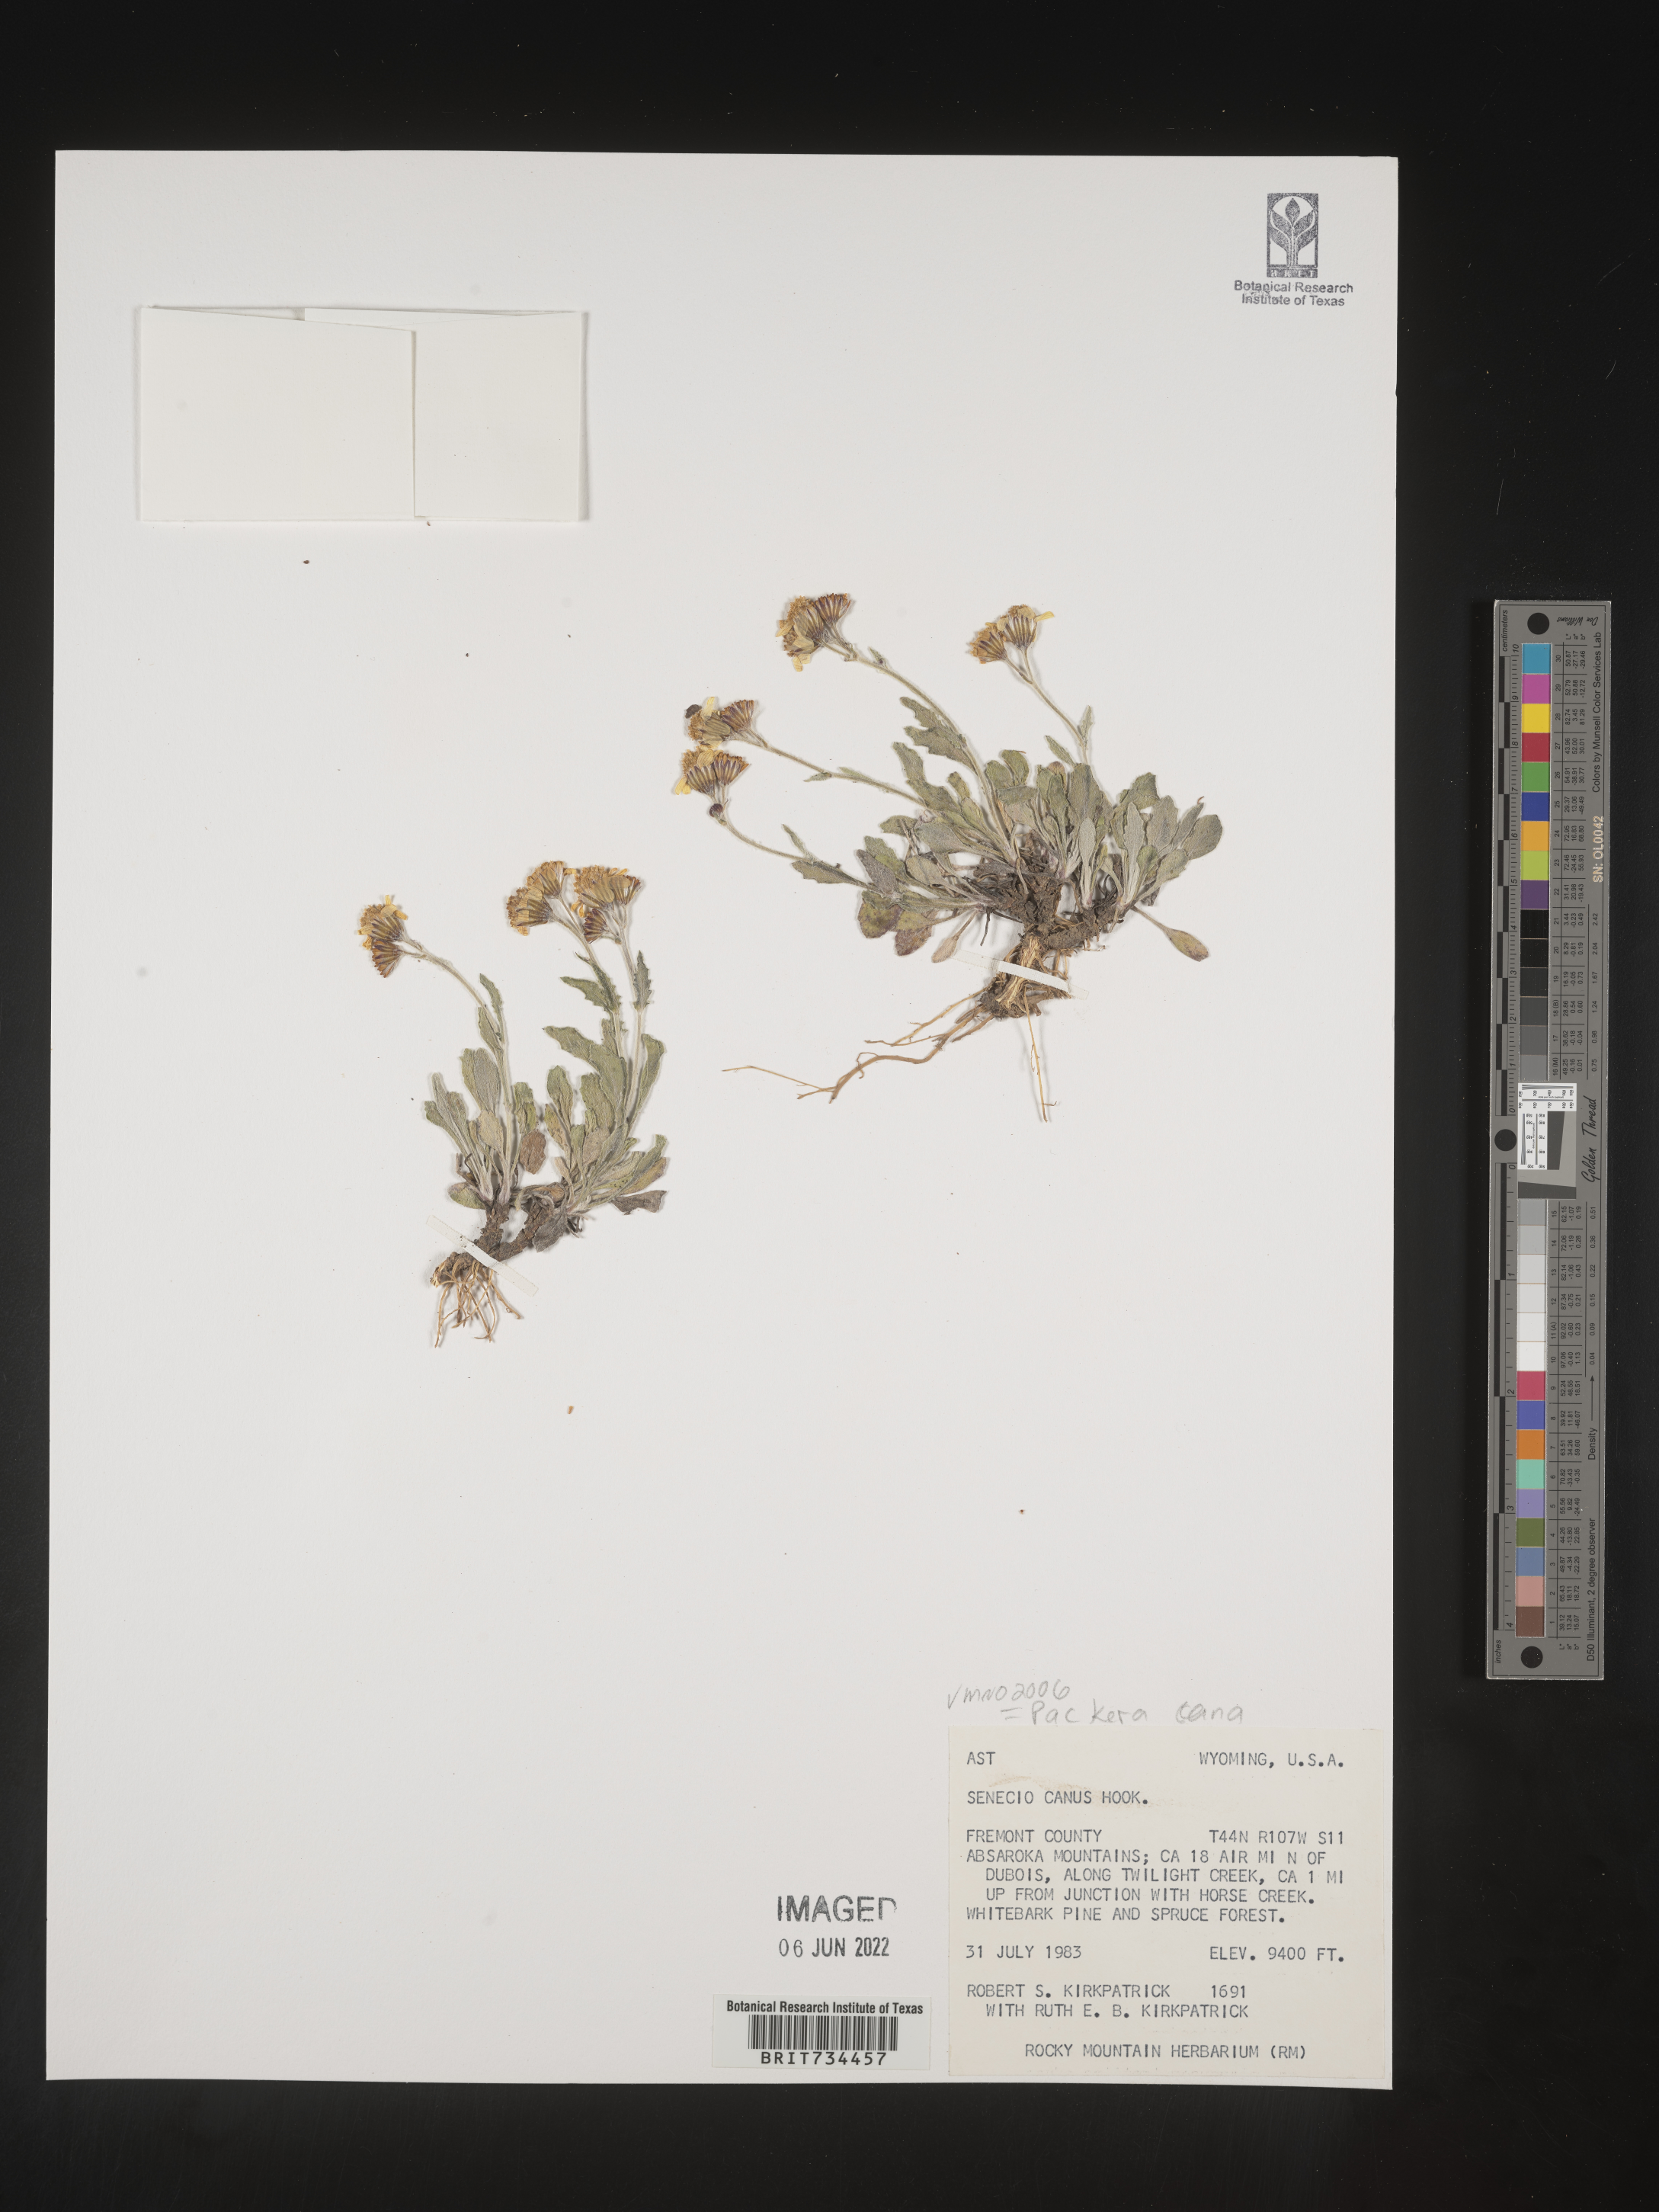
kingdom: Plantae
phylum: Tracheophyta
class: Magnoliopsida
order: Asterales
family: Asteraceae
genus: Packera
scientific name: Packera cana
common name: Woolly groundsel
